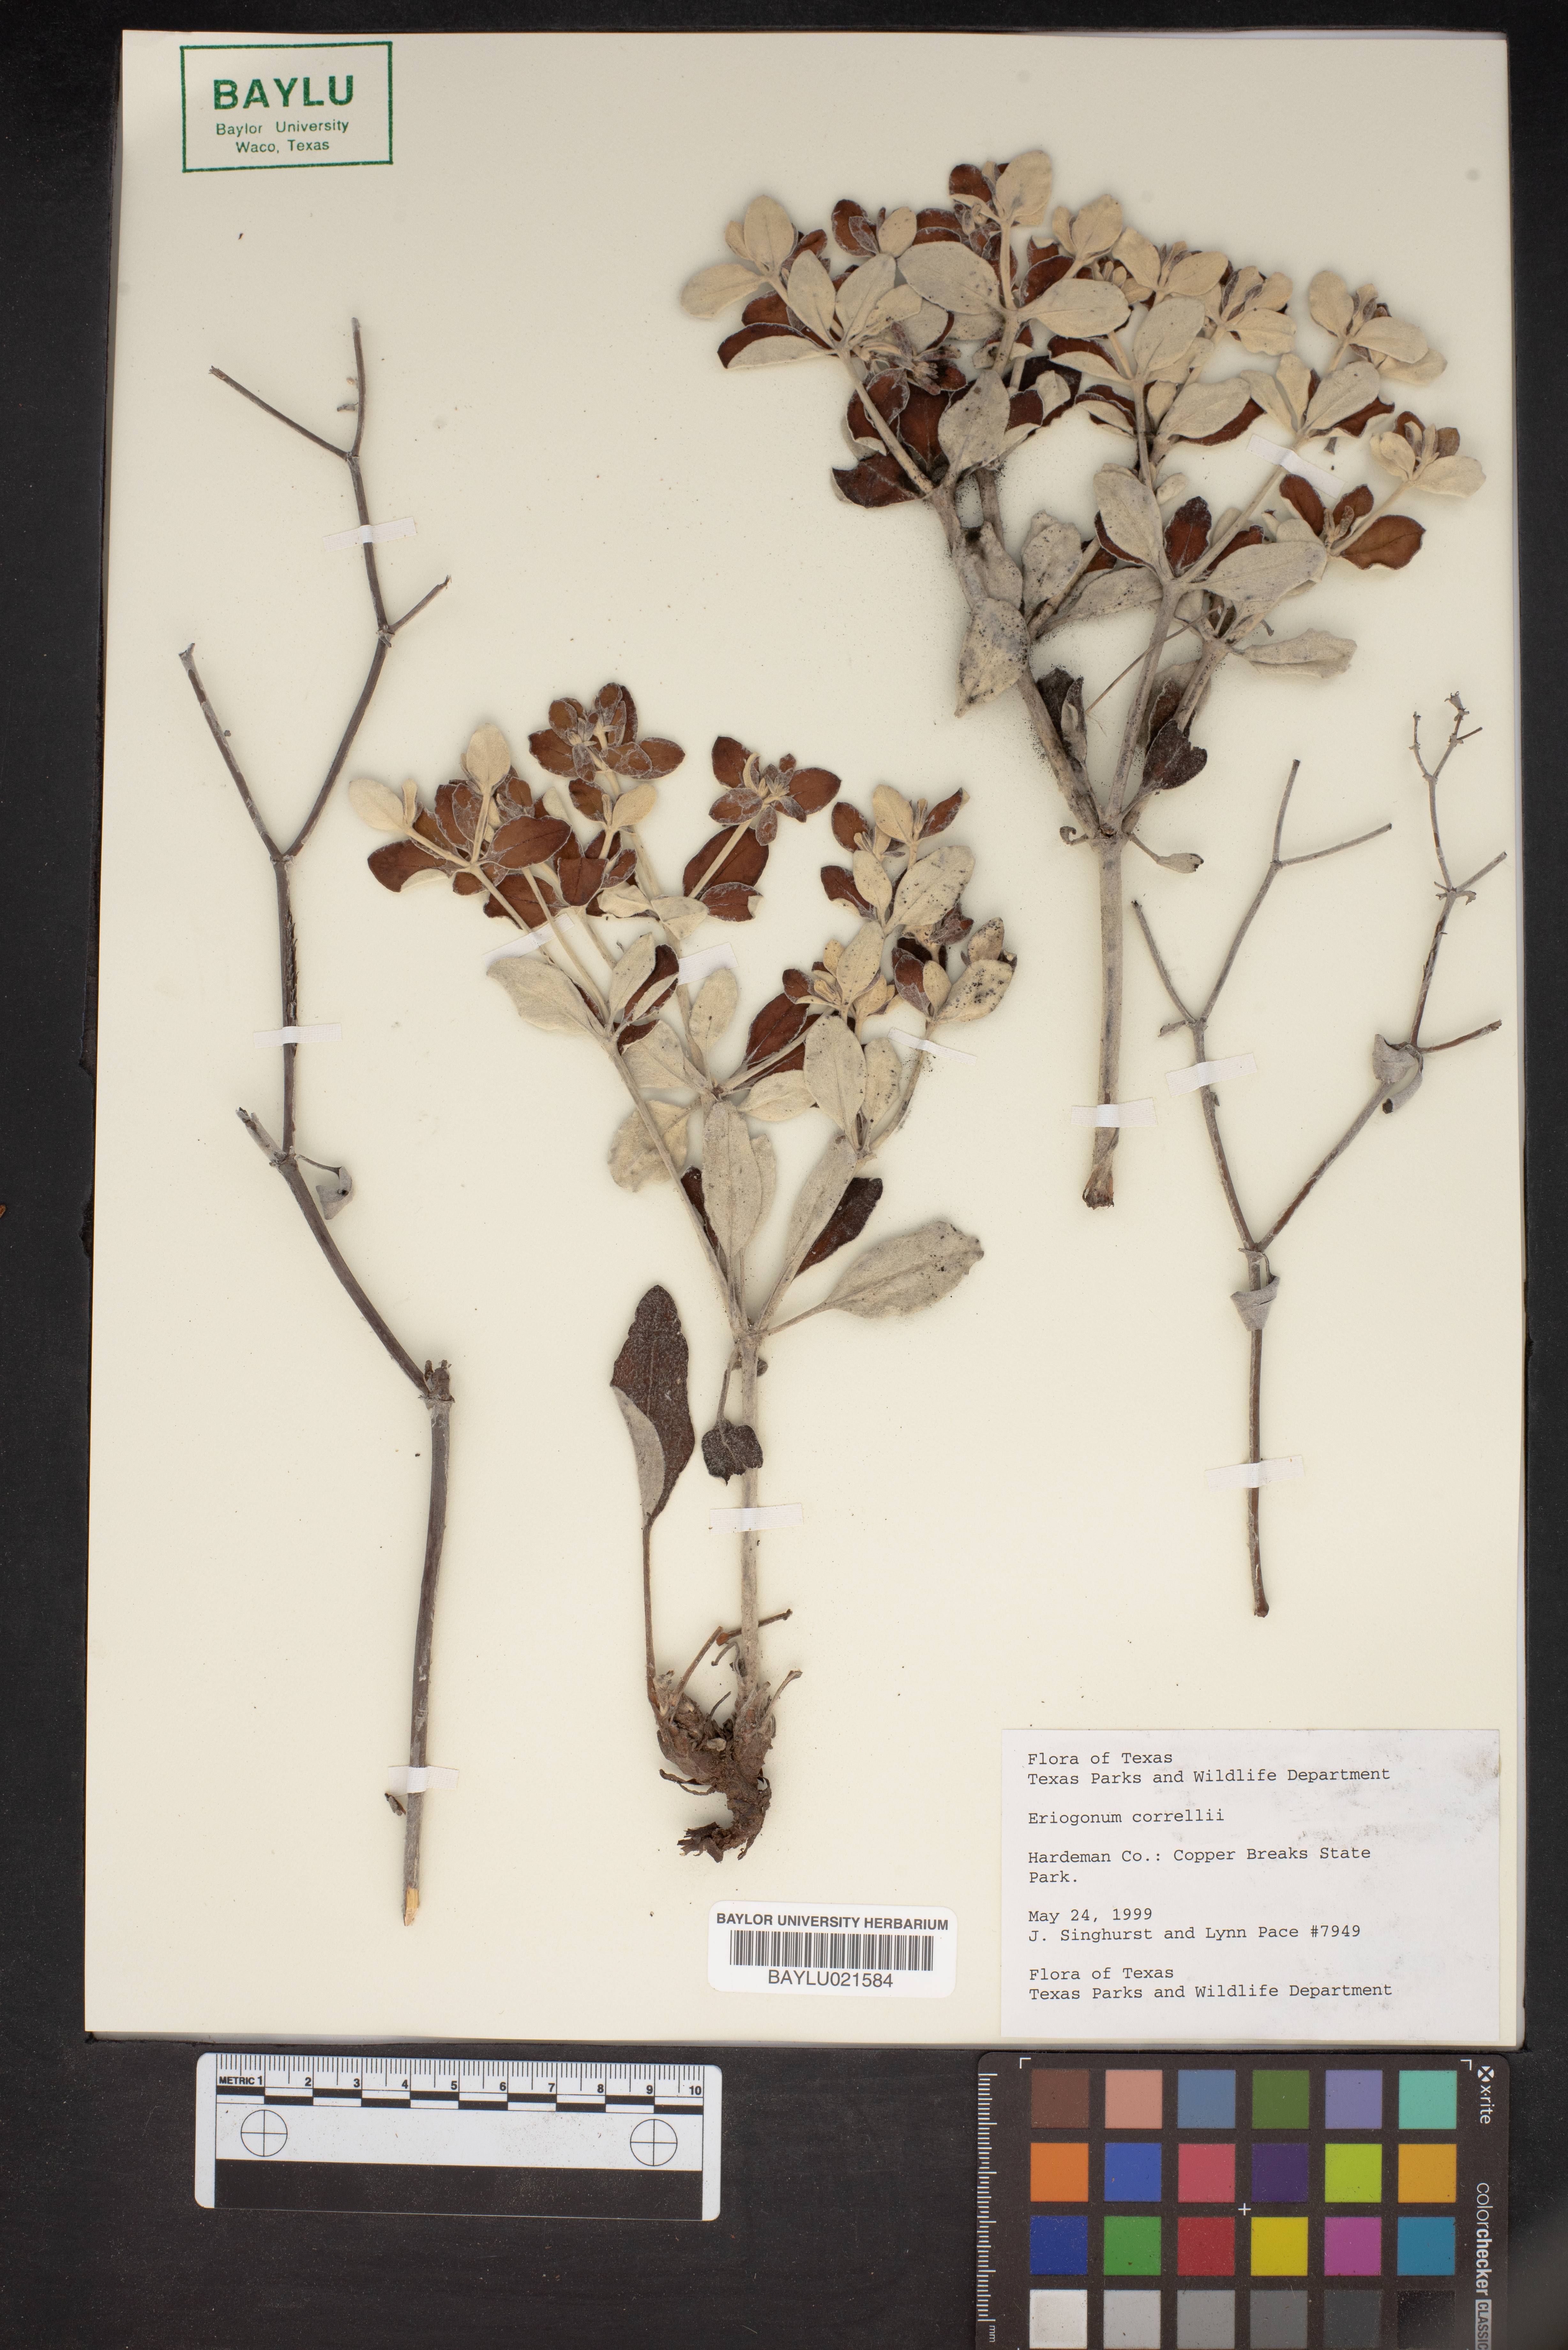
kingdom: Plantae
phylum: Tracheophyta
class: Magnoliopsida
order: Caryophyllales
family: Polygonaceae
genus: Eriogonum
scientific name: Eriogonum correllii
